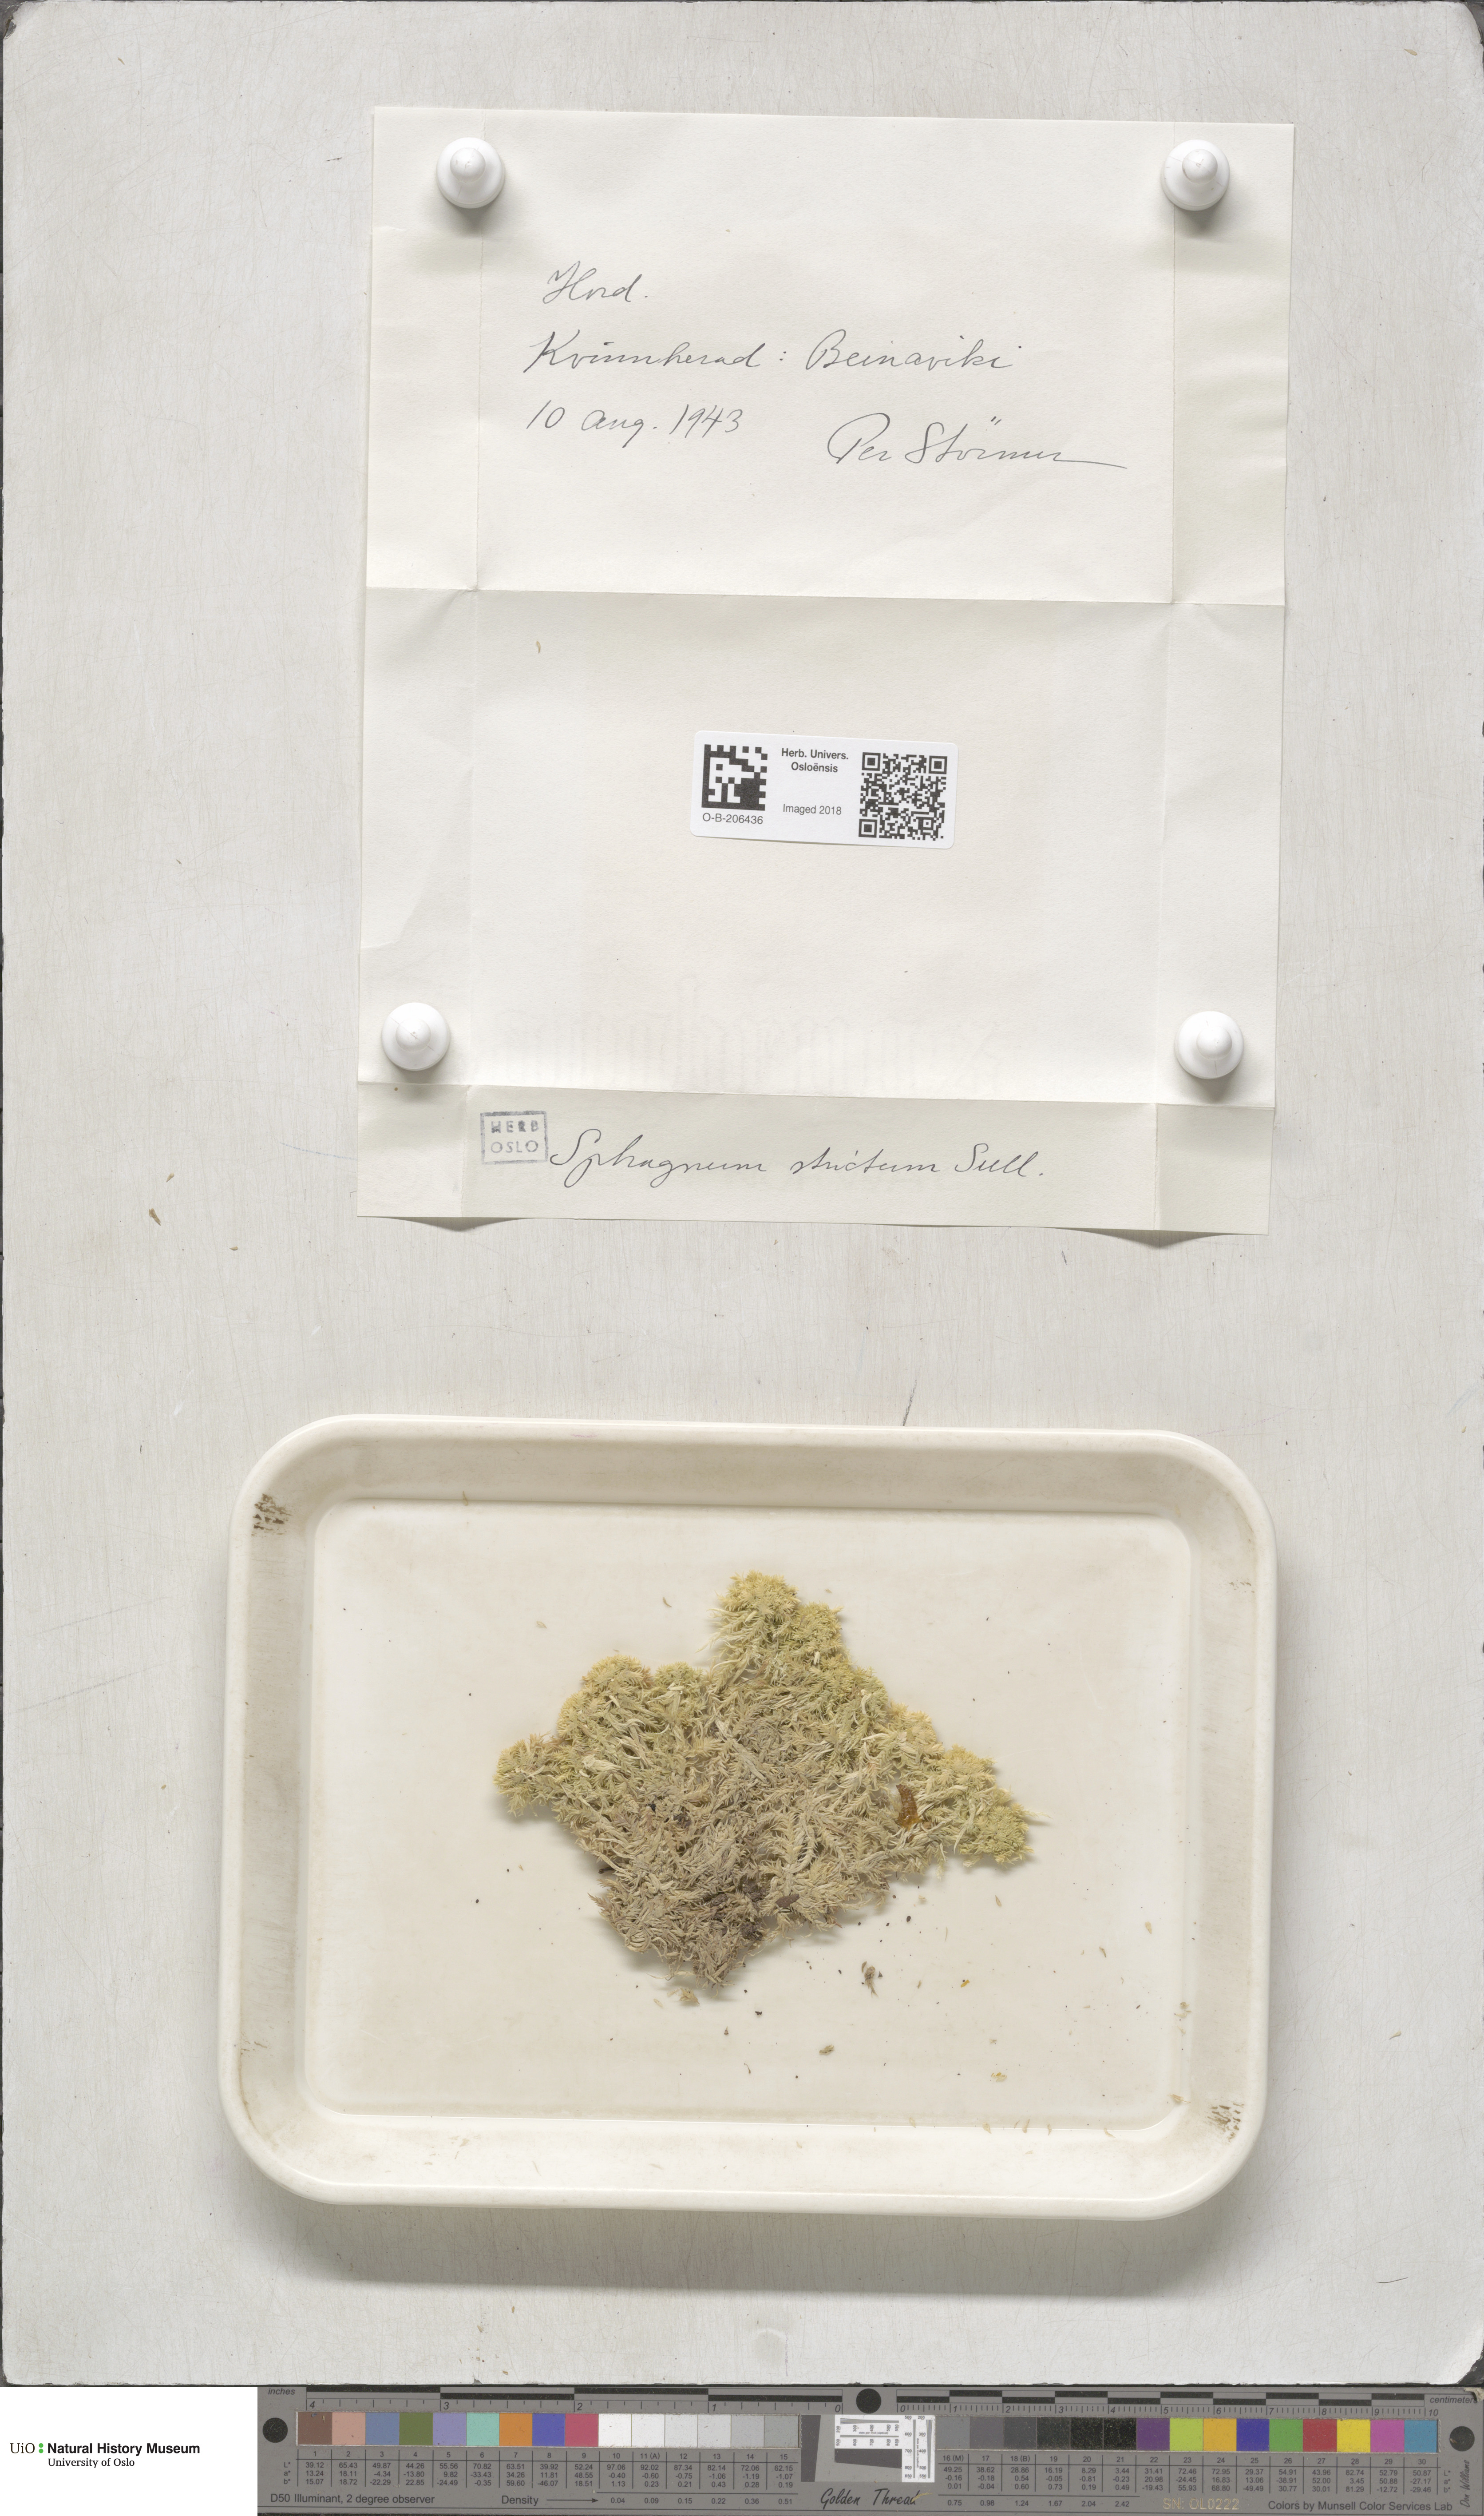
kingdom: Plantae
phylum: Bryophyta
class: Sphagnopsida
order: Sphagnales
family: Sphagnaceae
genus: Sphagnum
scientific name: Sphagnum strictum
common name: Pale bog-moss
